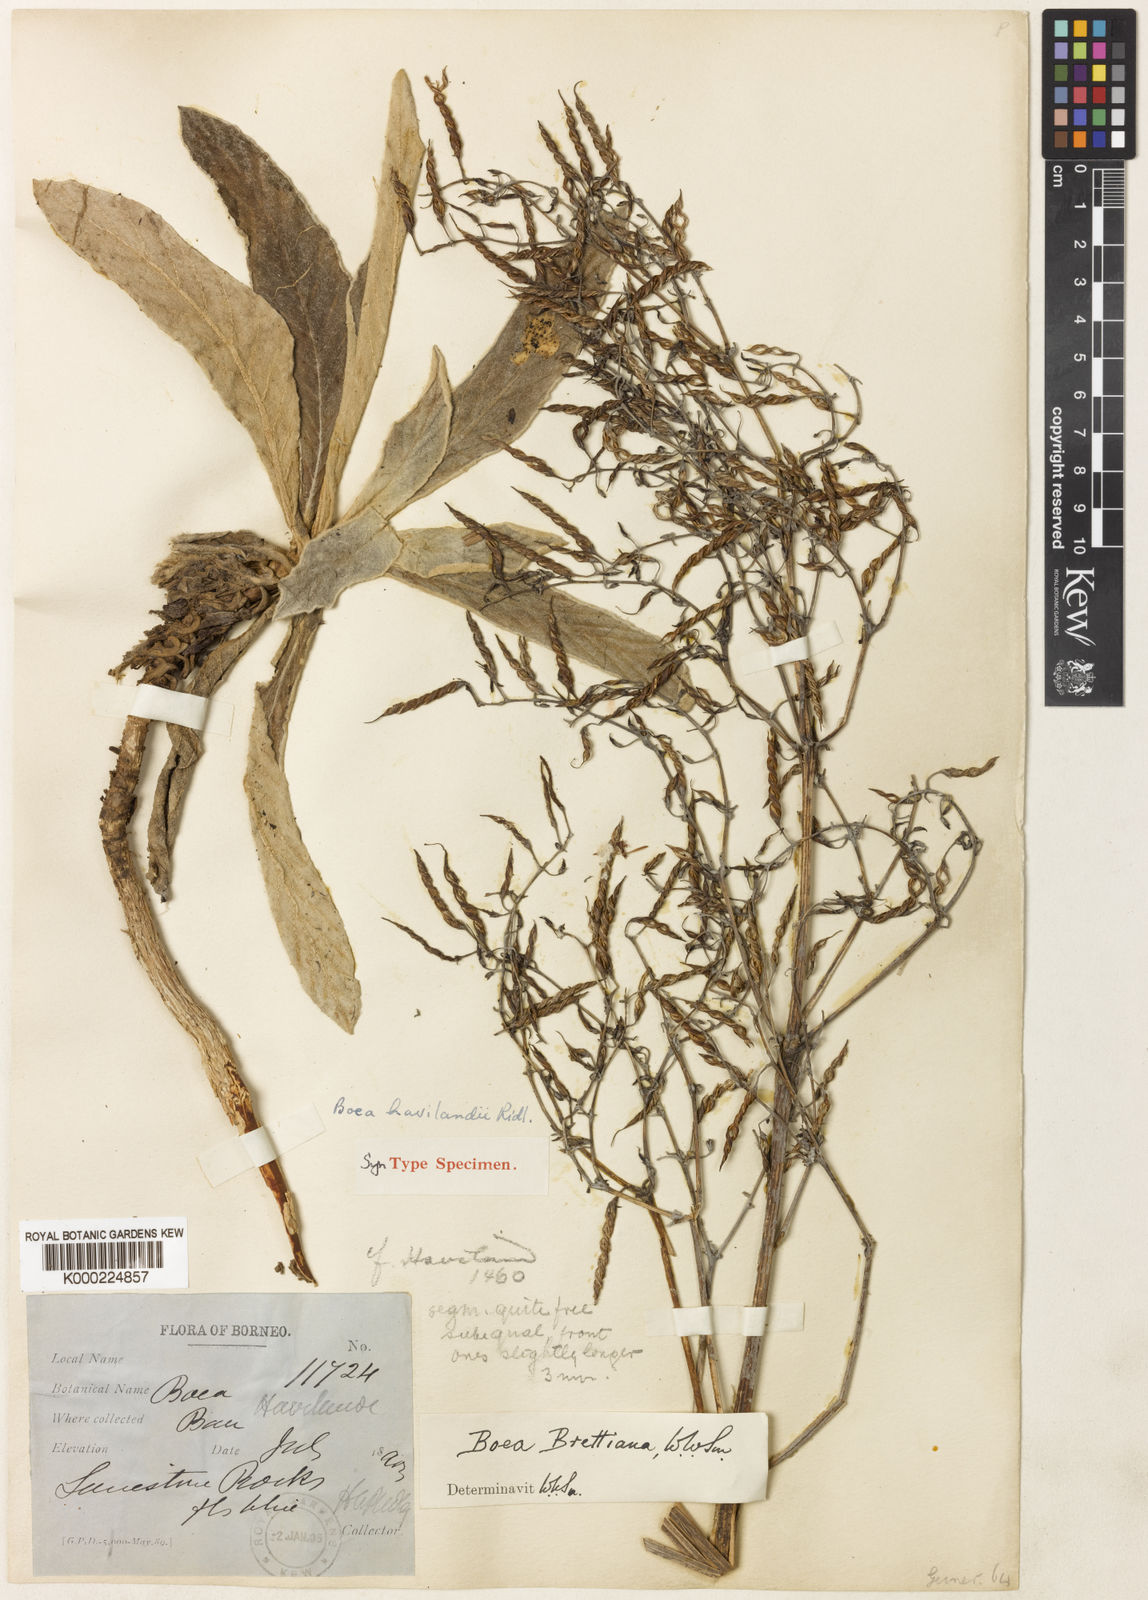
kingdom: Plantae
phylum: Tracheophyta
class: Magnoliopsida
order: Lamiales
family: Gesneriaceae
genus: Paraboea
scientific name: Paraboea havilandii
